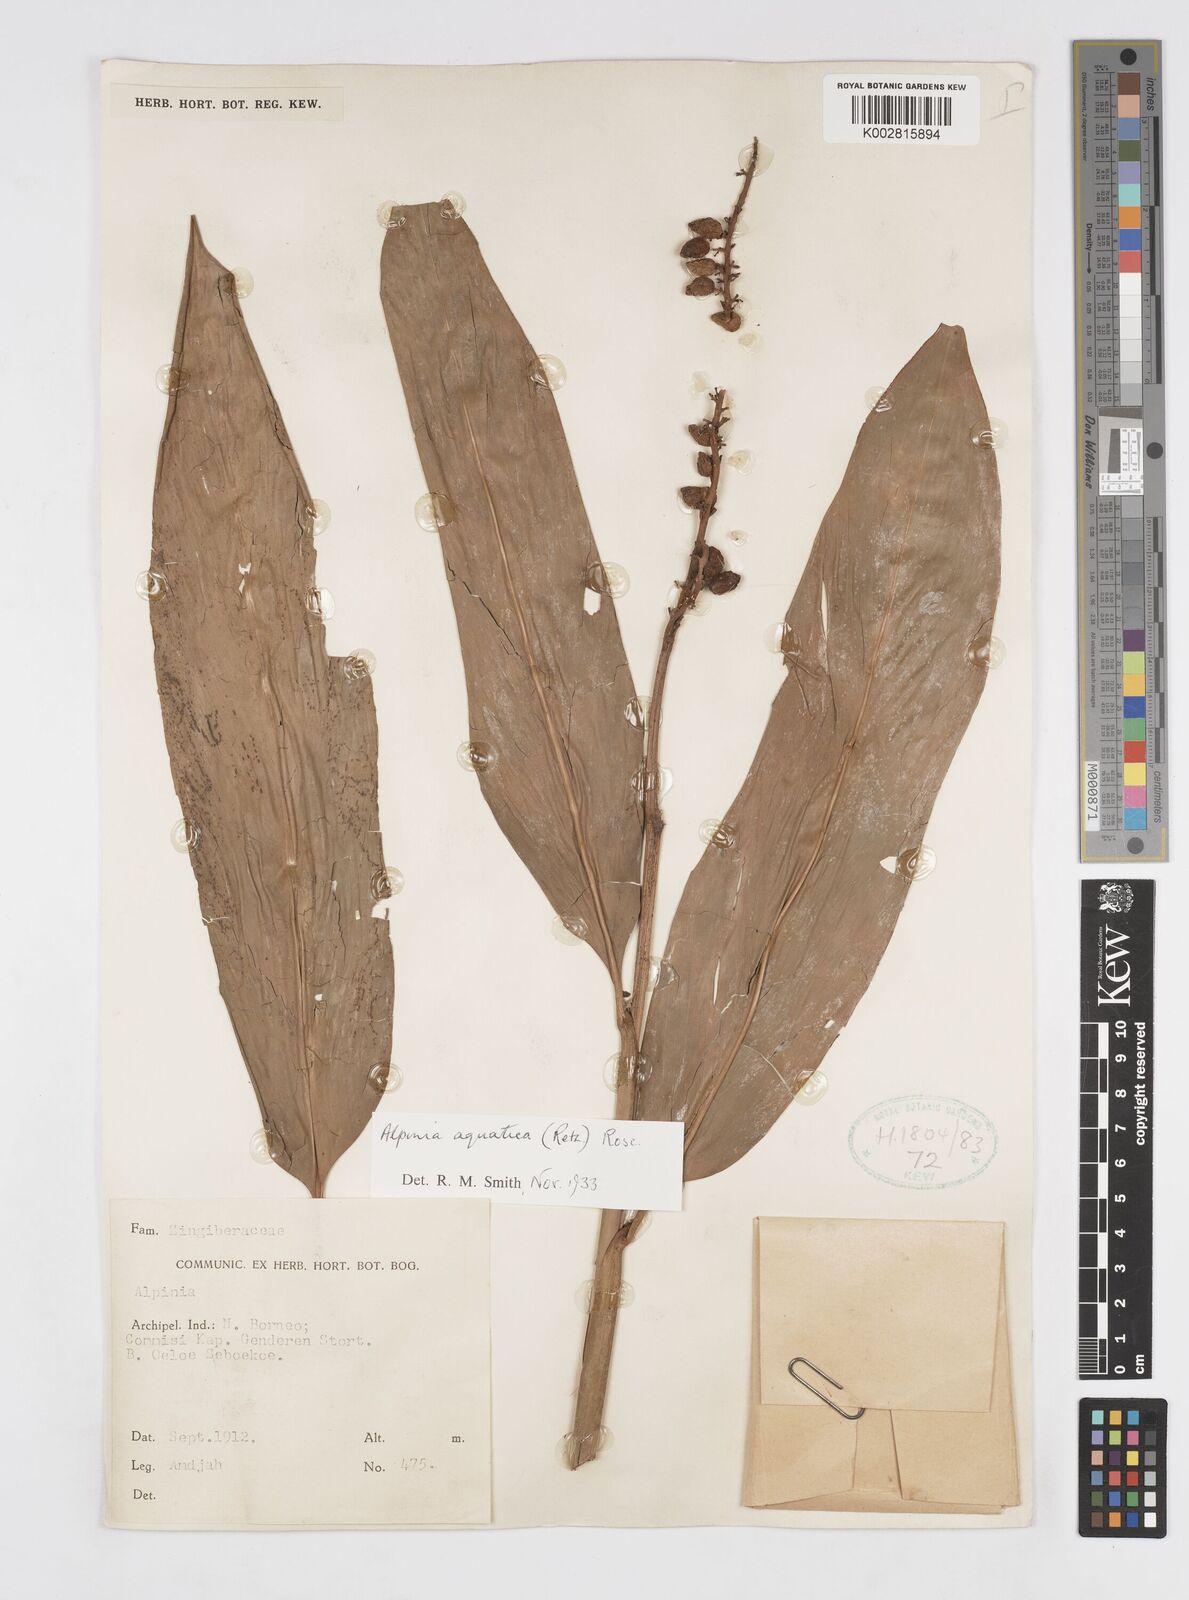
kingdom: Plantae
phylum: Tracheophyta
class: Liliopsida
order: Zingiberales
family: Zingiberaceae
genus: Alpinia
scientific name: Alpinia aquatica
